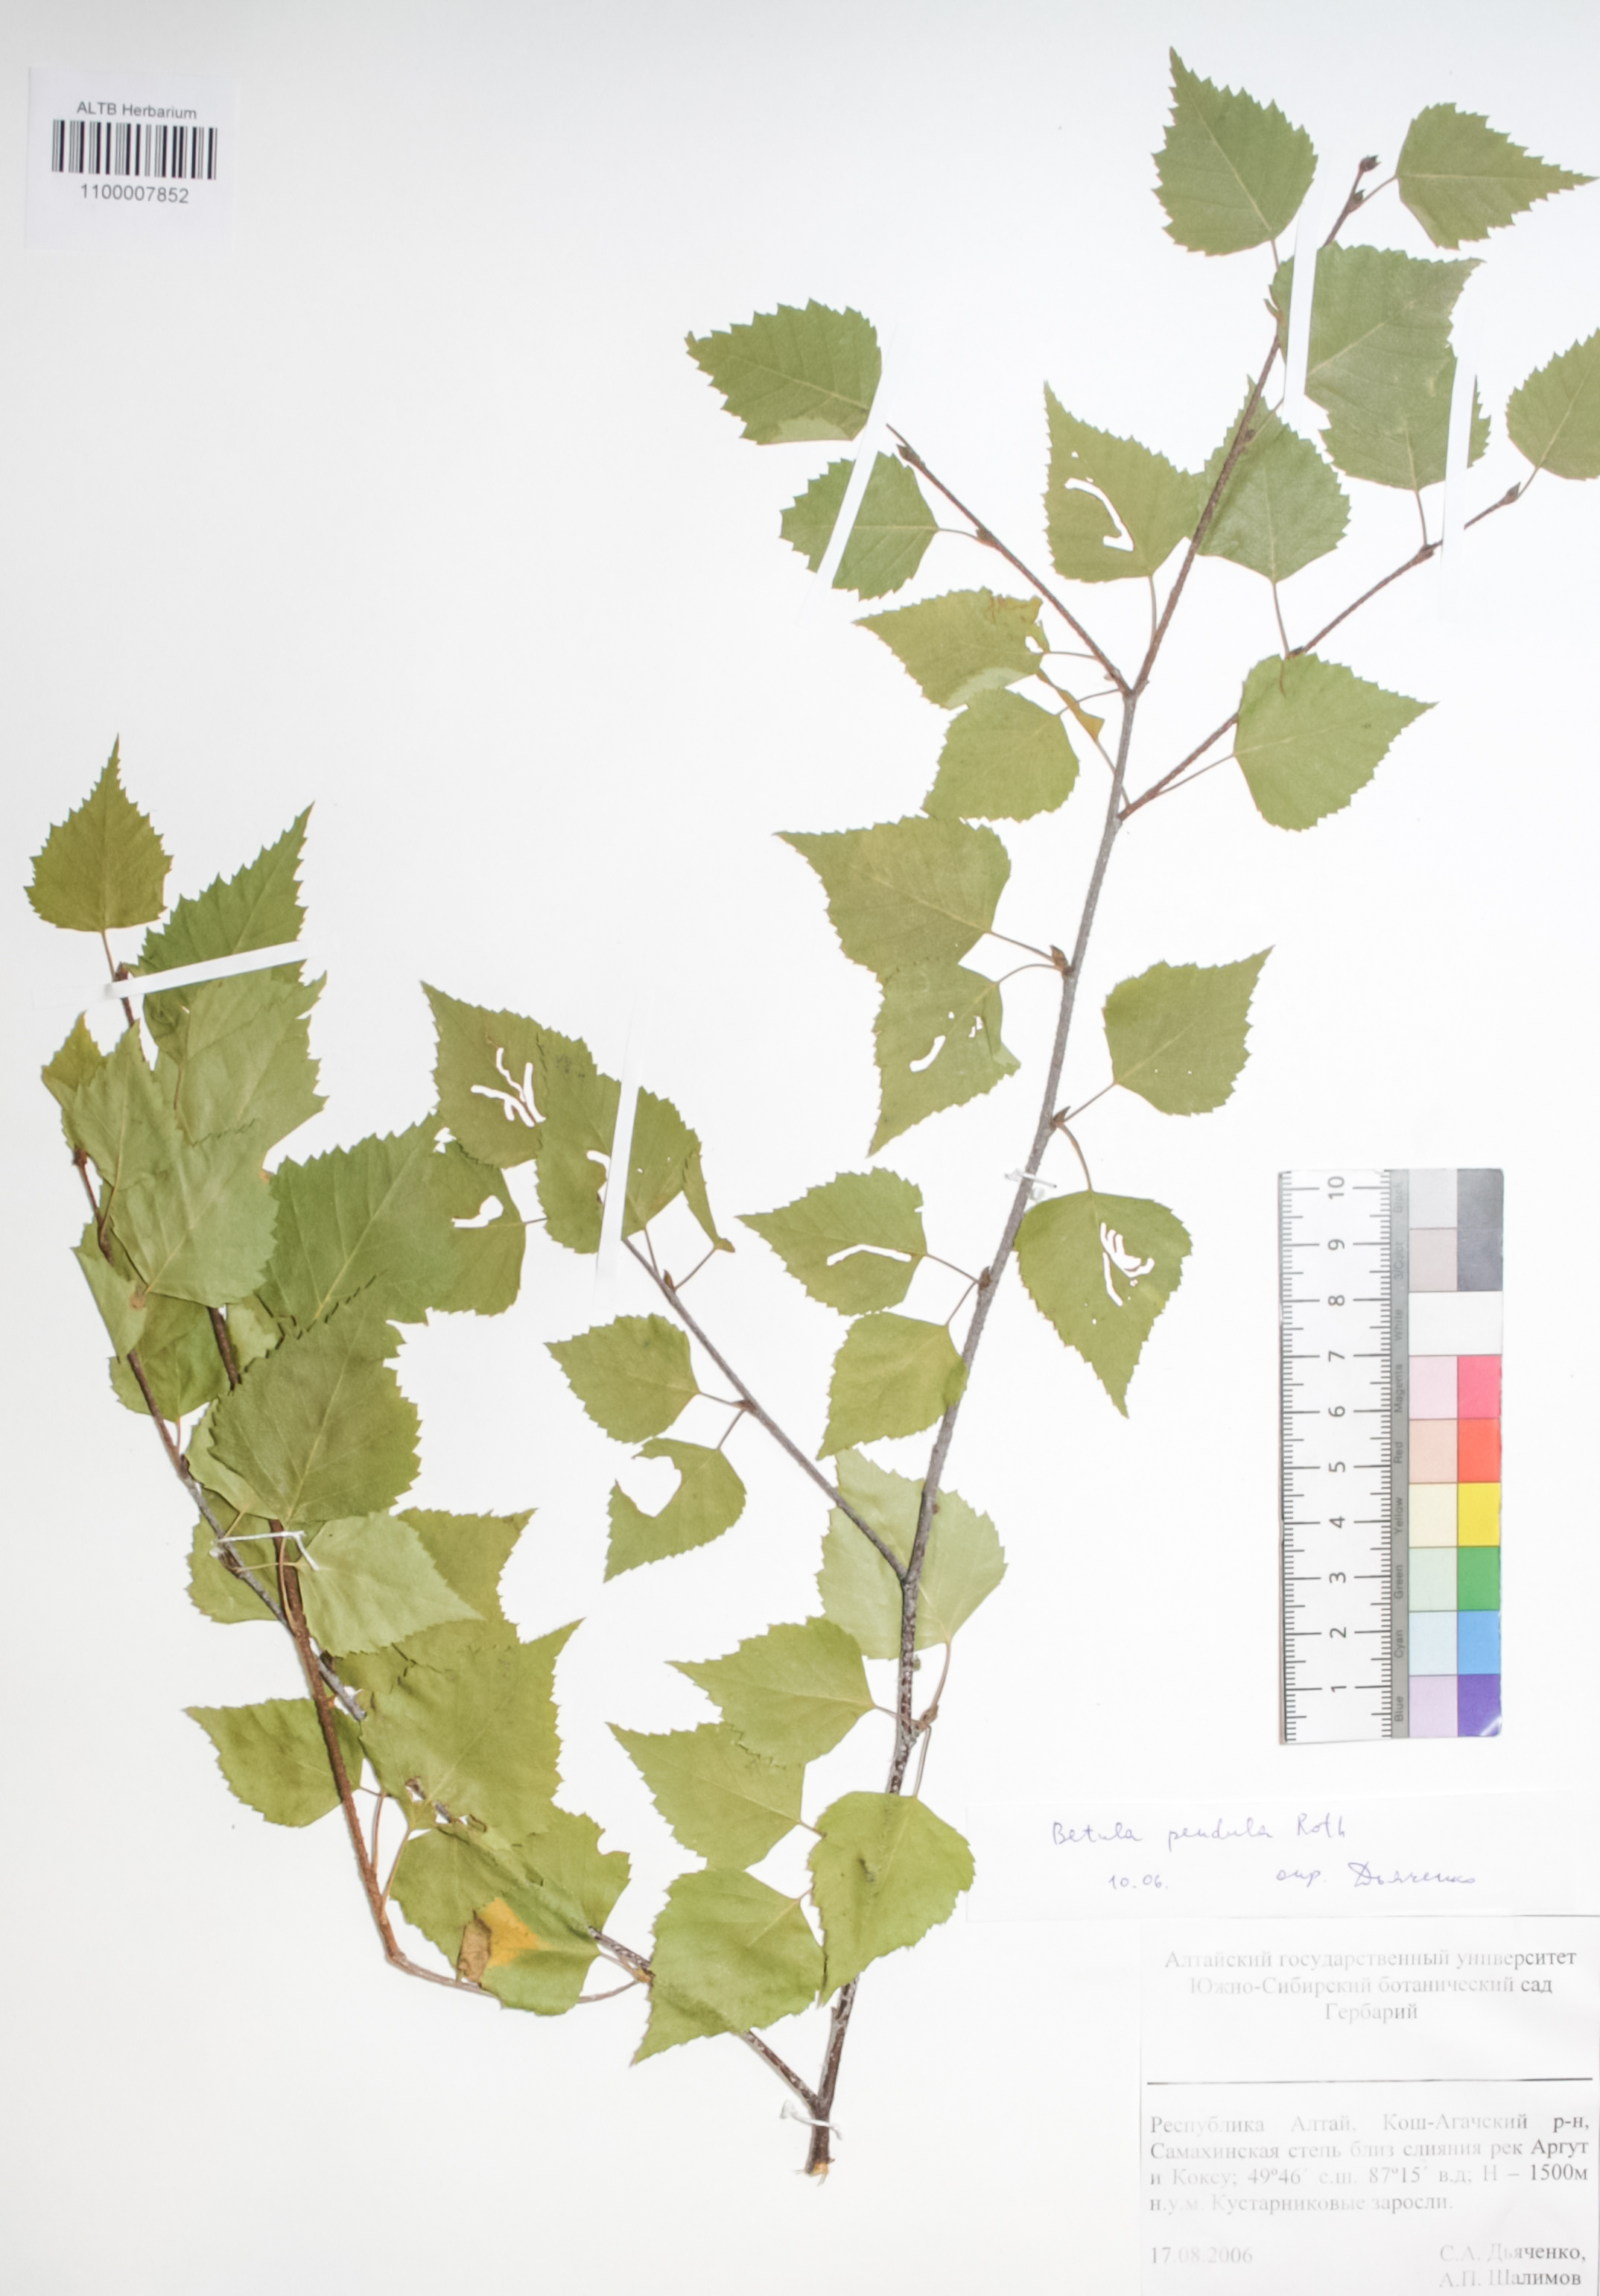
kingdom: Plantae
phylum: Tracheophyta
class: Magnoliopsida
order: Fagales
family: Betulaceae
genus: Betula
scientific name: Betula pendula
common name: Silver birch
